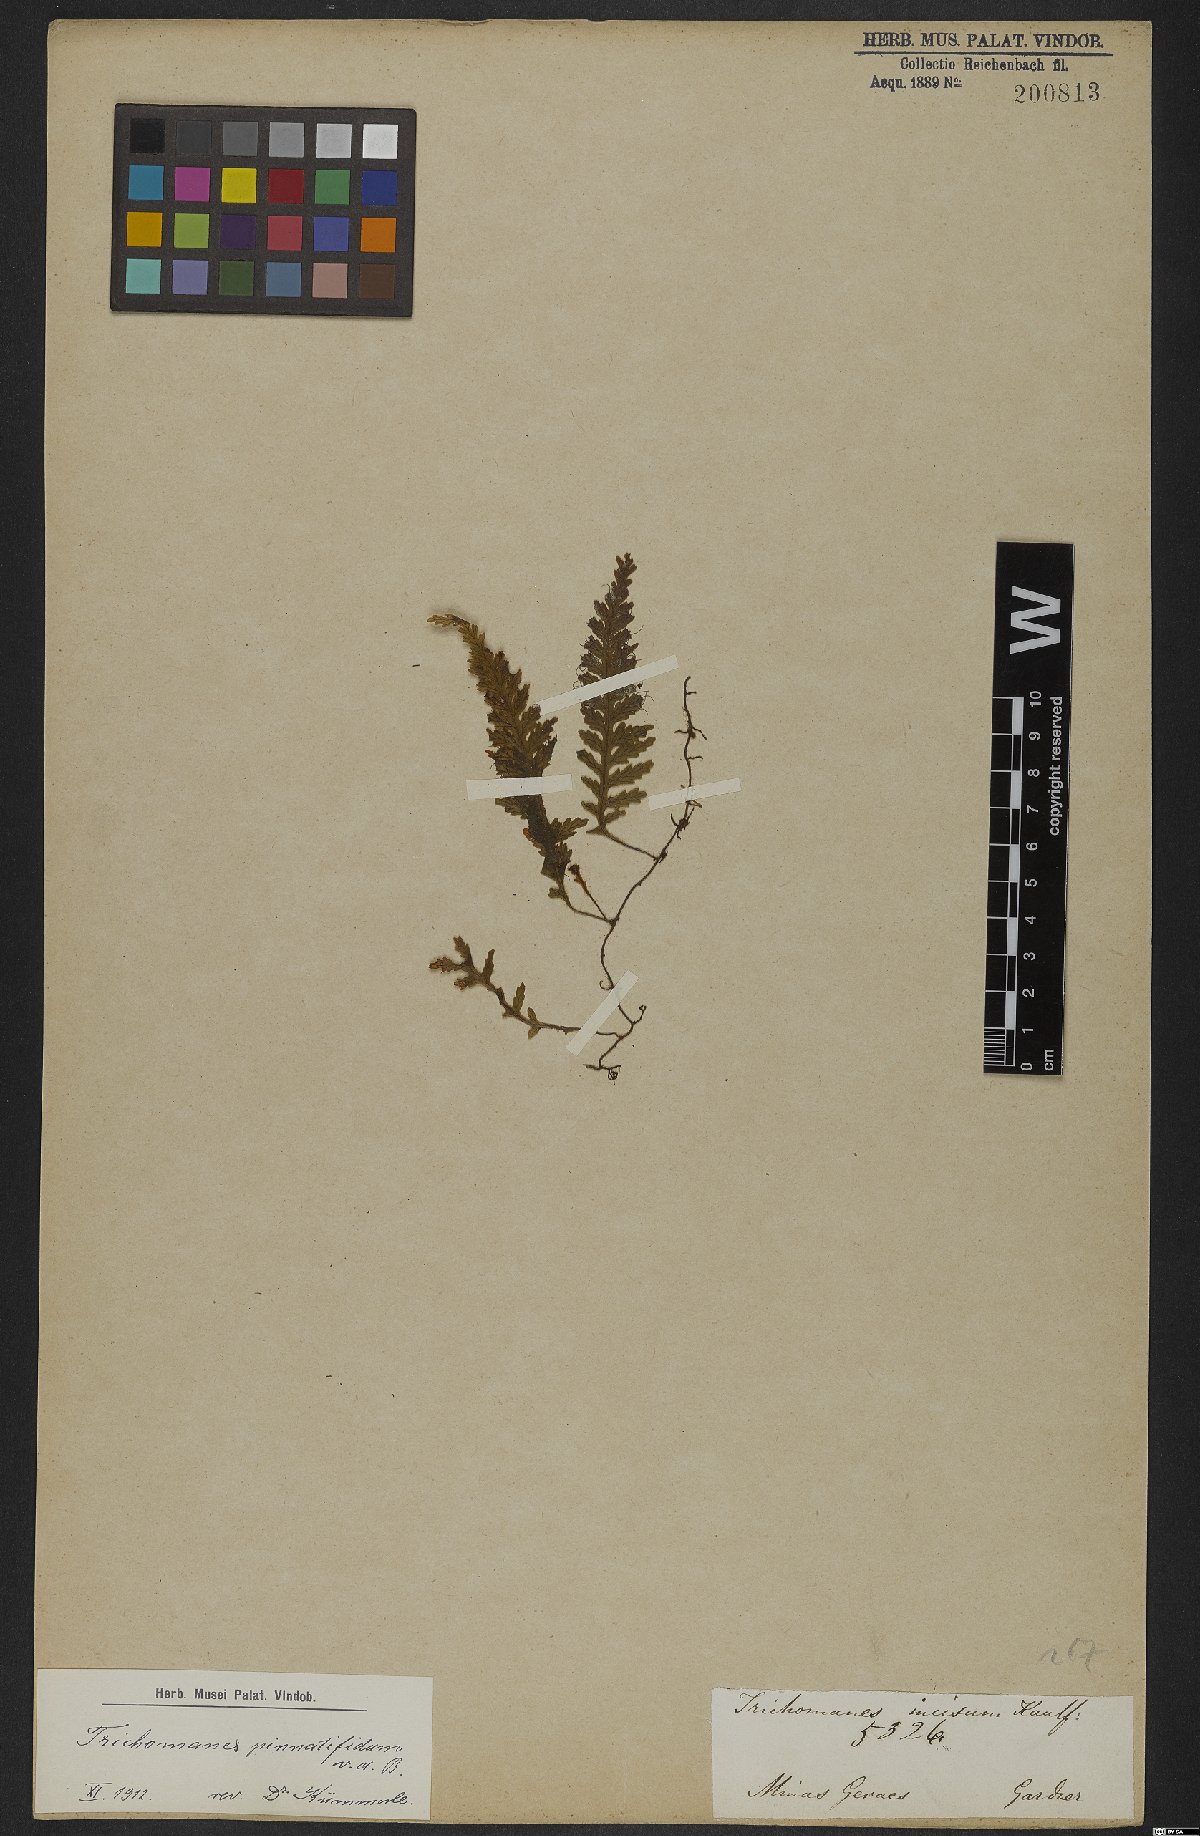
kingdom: Plantae
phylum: Tracheophyta
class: Polypodiopsida
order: Hymenophyllales
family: Hymenophyllaceae
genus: Trichomanes
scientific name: Trichomanes pinnatifidum
